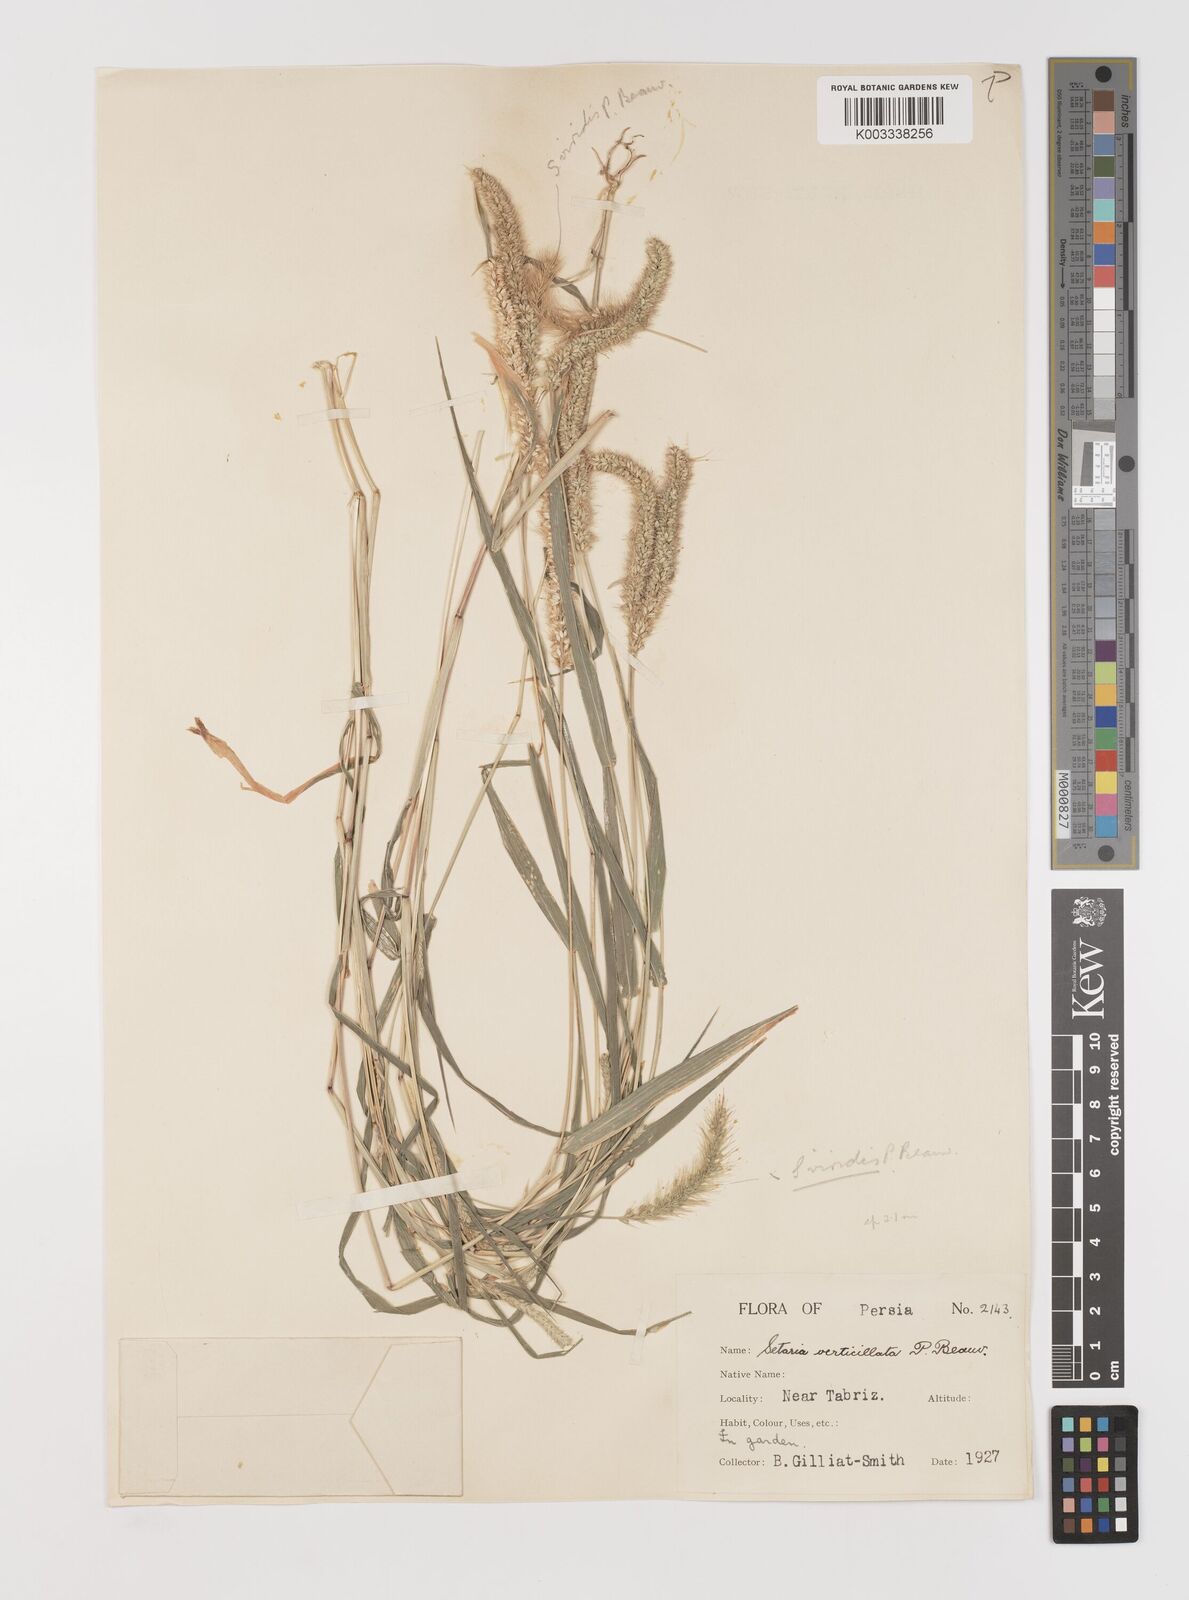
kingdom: Plantae
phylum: Tracheophyta
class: Liliopsida
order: Poales
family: Poaceae
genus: Setaria
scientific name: Setaria verticillata
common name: Hooked bristlegrass
